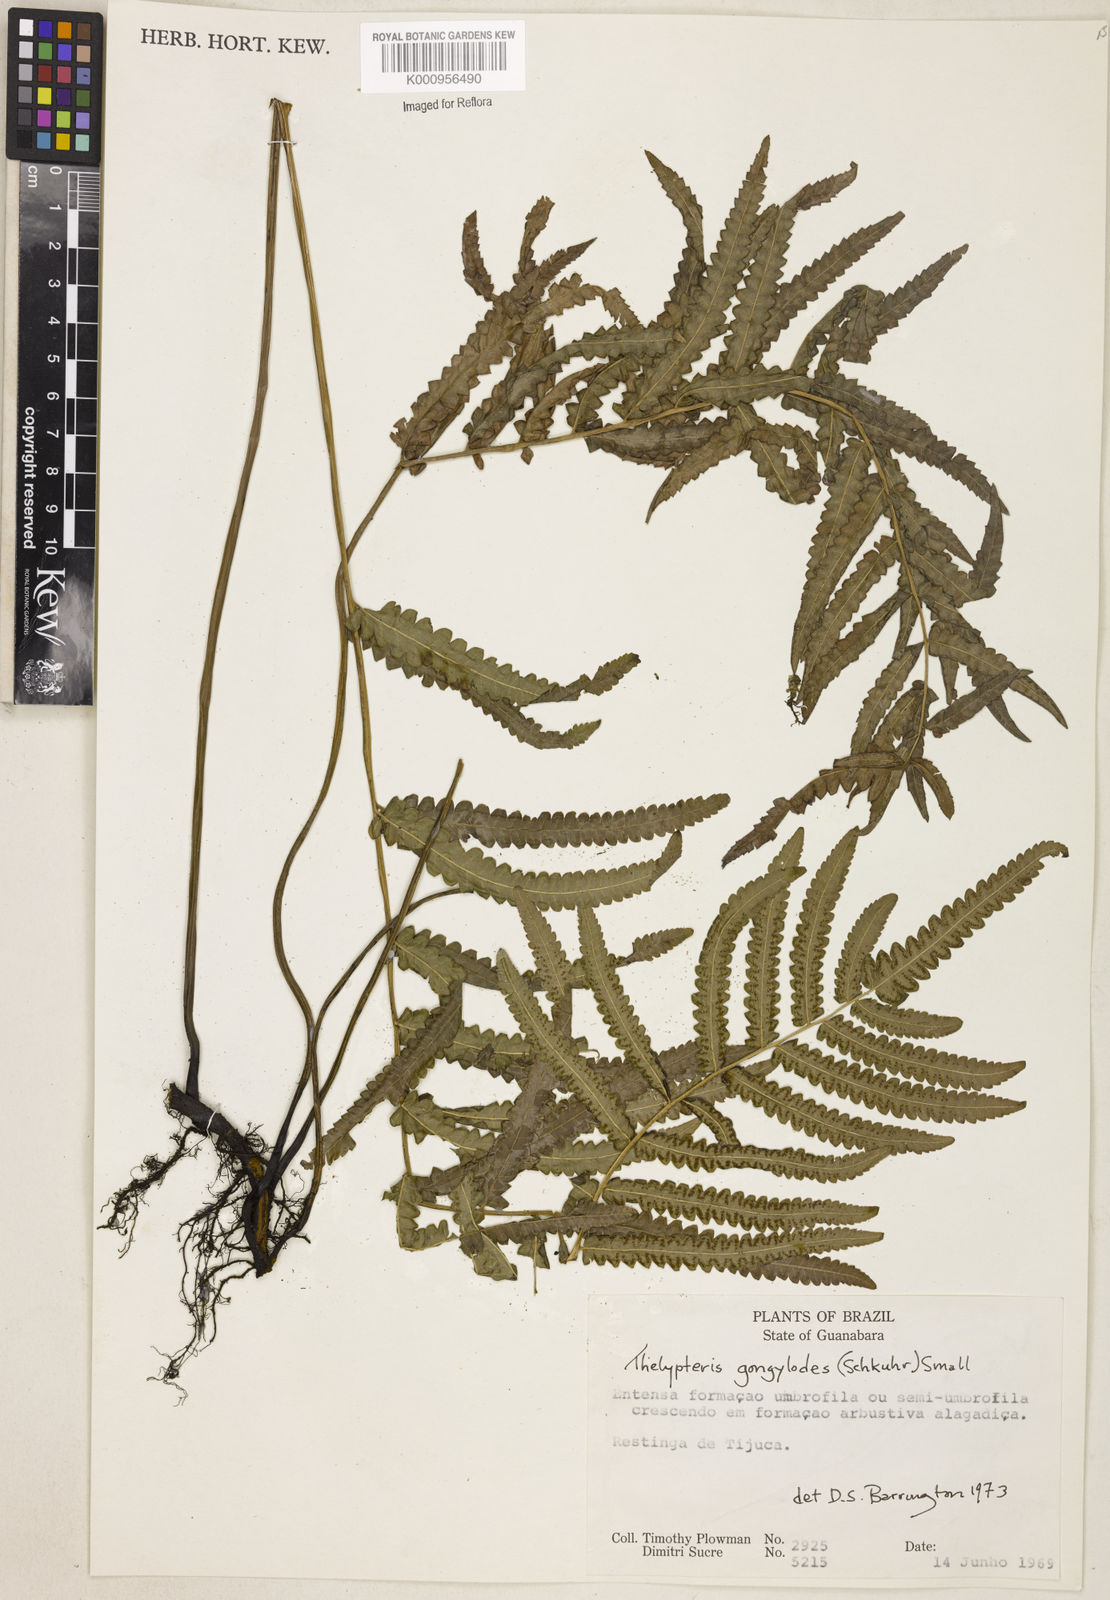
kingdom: Plantae
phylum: Tracheophyta
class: Polypodiopsida
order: Polypodiales
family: Thelypteridaceae
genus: Cyclosorus
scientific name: Cyclosorus interruptus
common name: Neke fern
